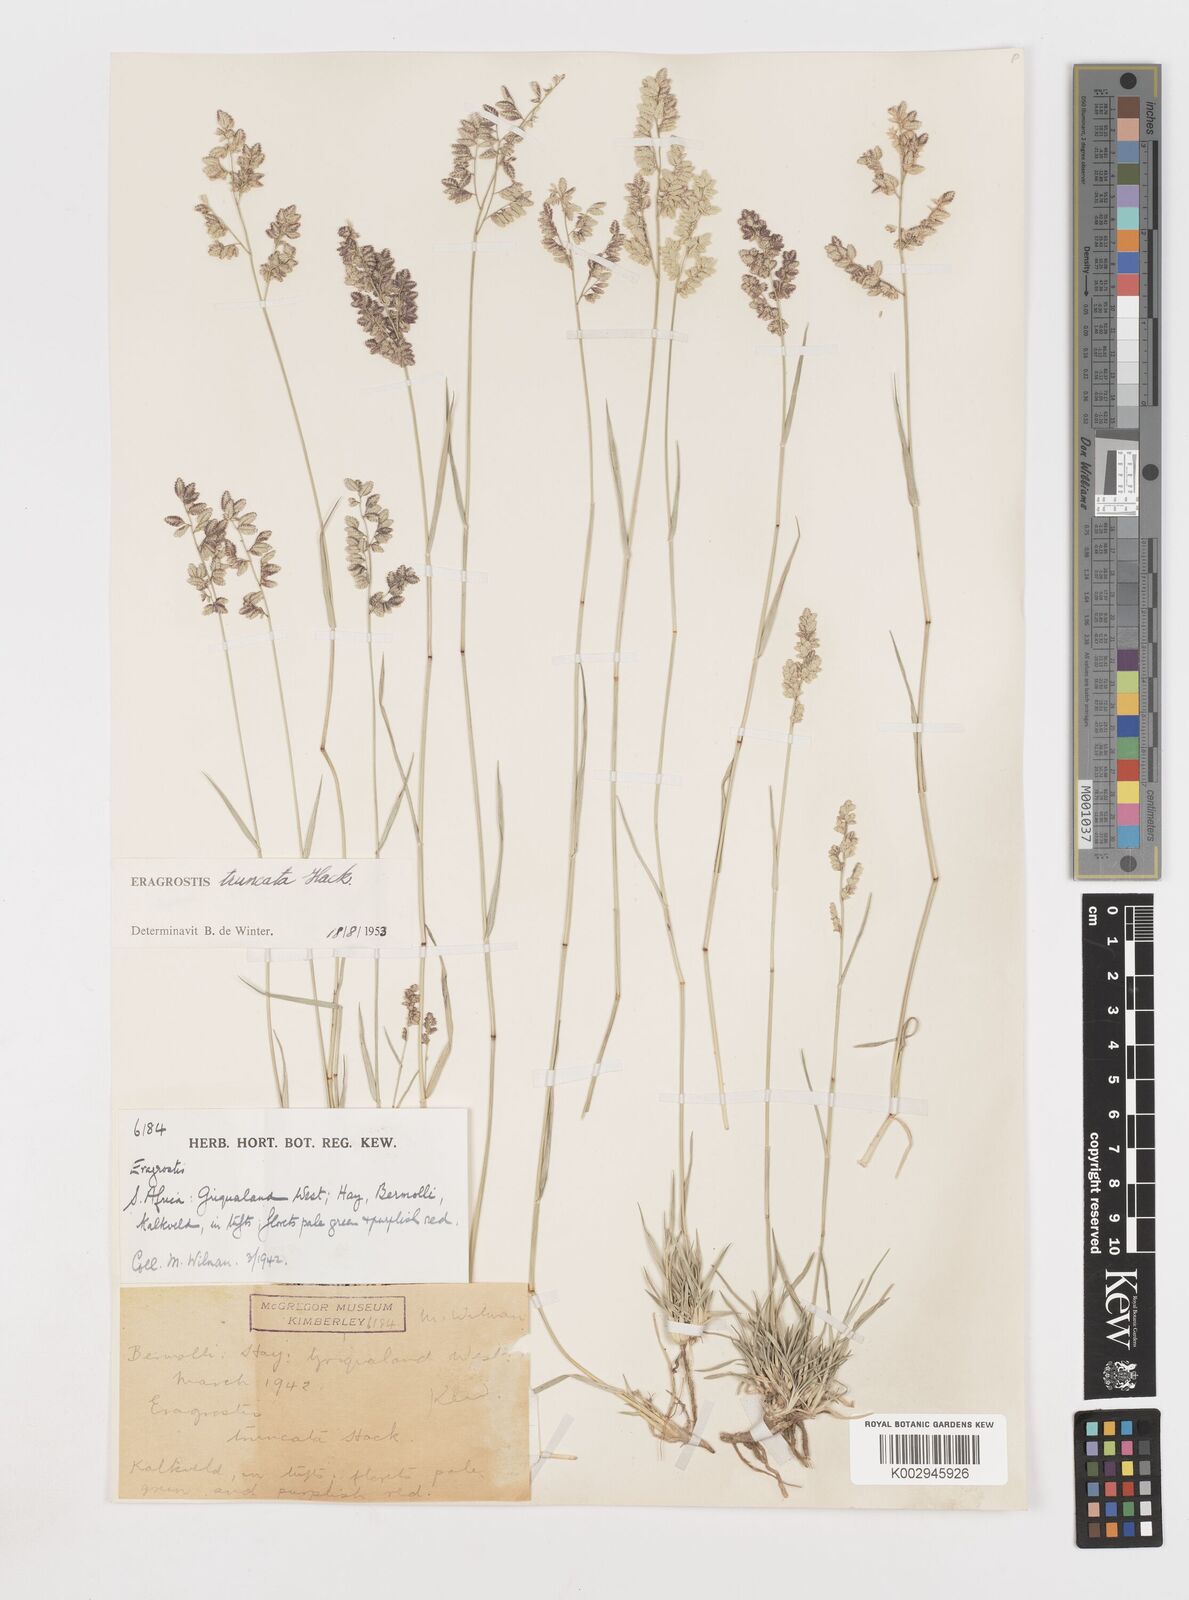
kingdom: Plantae
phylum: Tracheophyta
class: Liliopsida
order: Poales
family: Poaceae
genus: Eragrostis
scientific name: Eragrostis truncata
